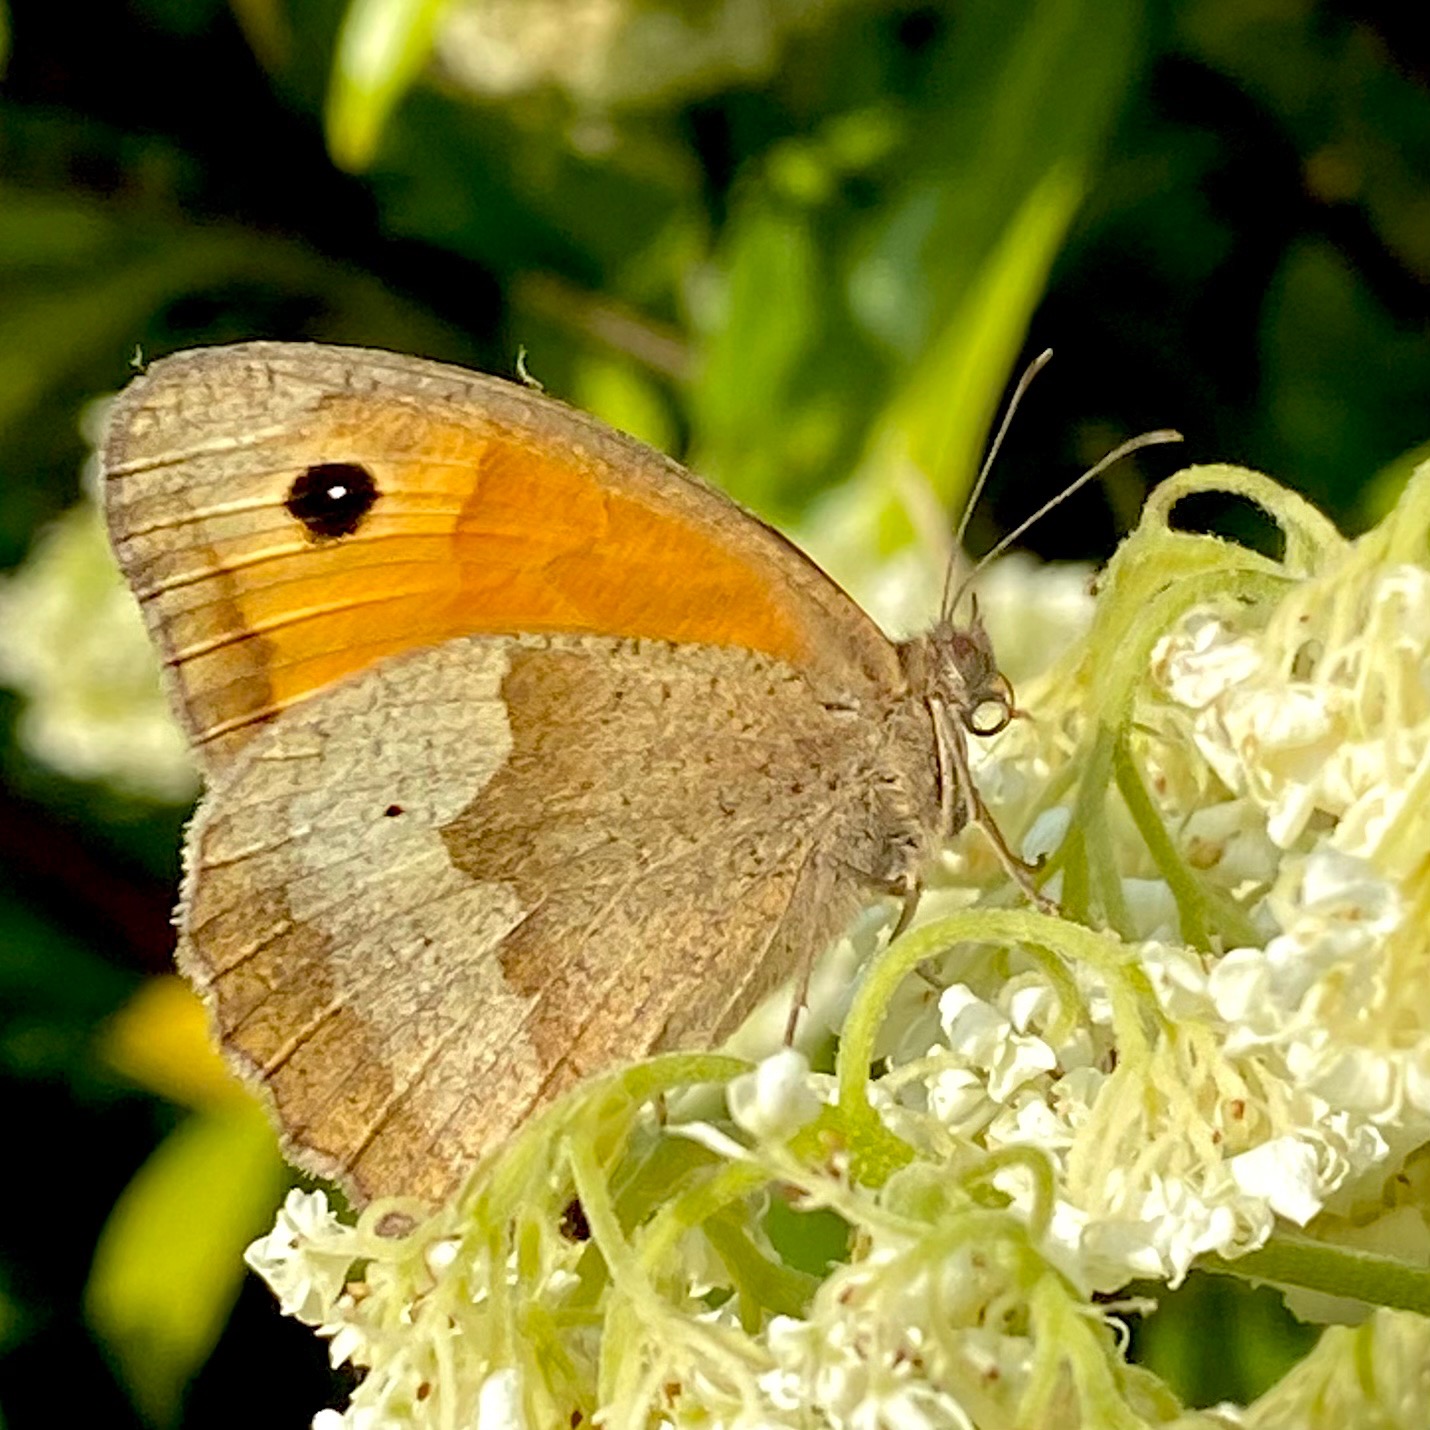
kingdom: Animalia
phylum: Arthropoda
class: Insecta
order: Lepidoptera
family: Nymphalidae
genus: Maniola
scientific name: Maniola jurtina
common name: Græsrandøje
